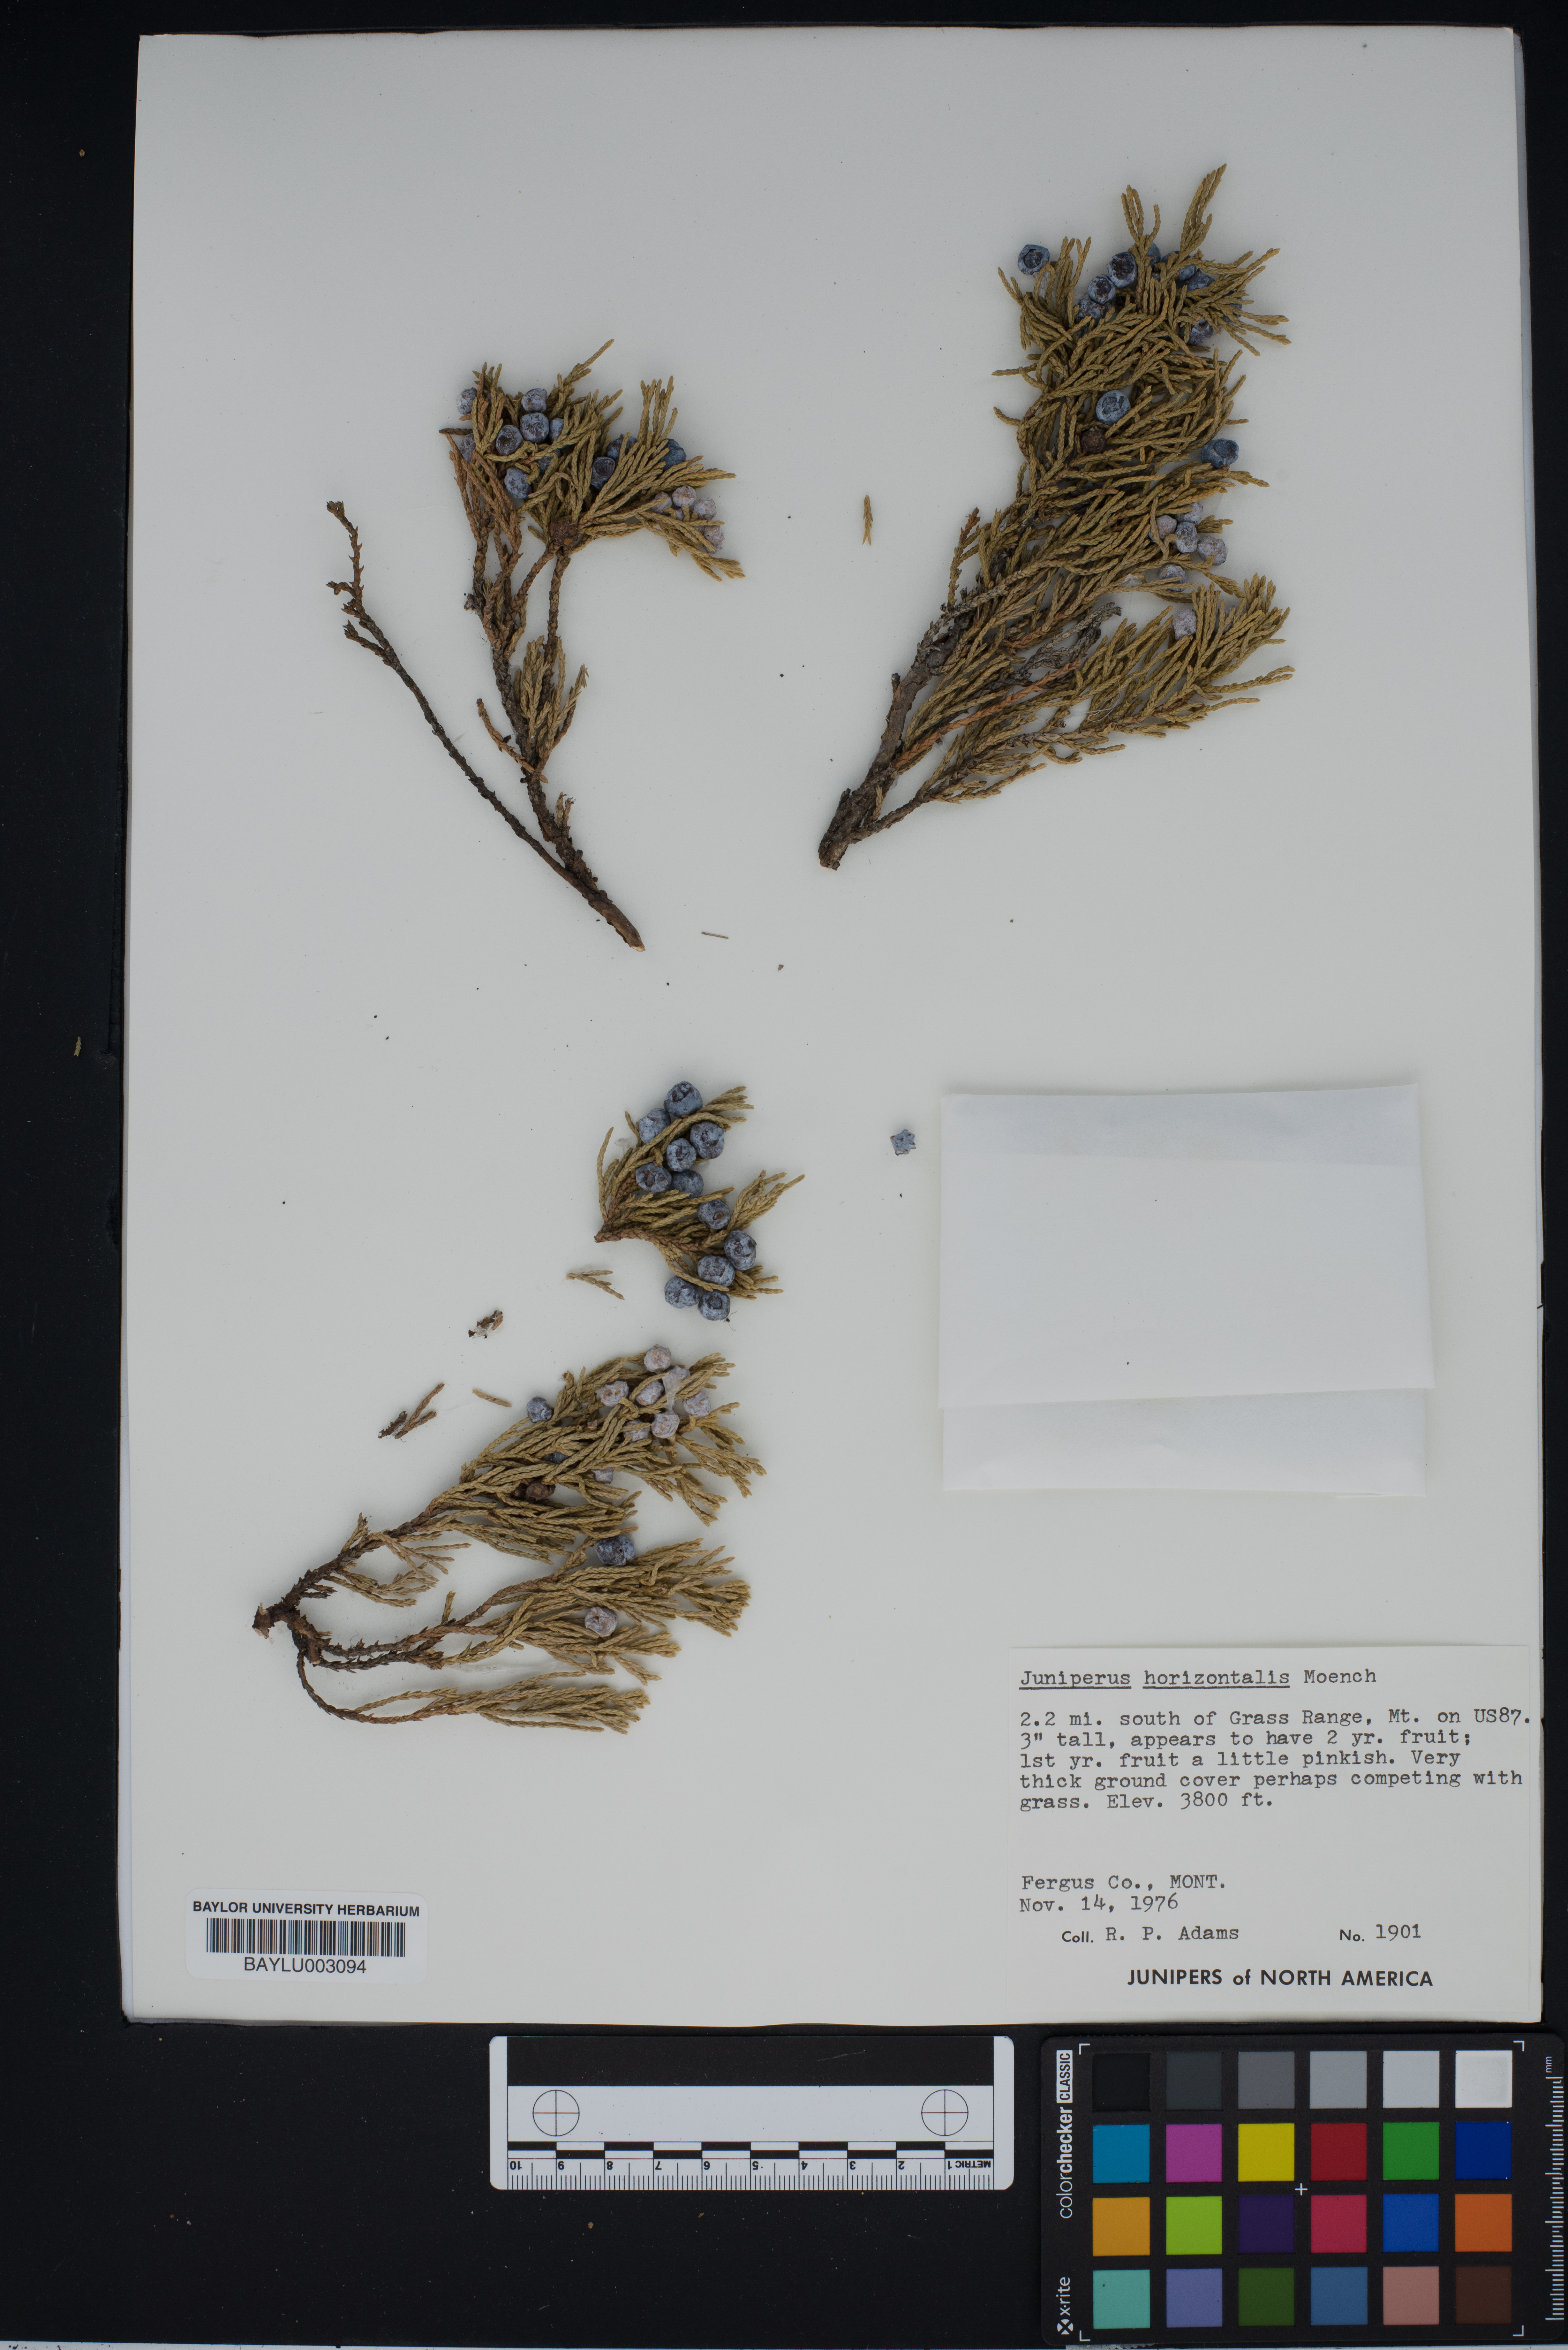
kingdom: Plantae
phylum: Tracheophyta
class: Pinopsida
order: Pinales
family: Cupressaceae
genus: Juniperus
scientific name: Juniperus horizontalis
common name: Creeping juniper
